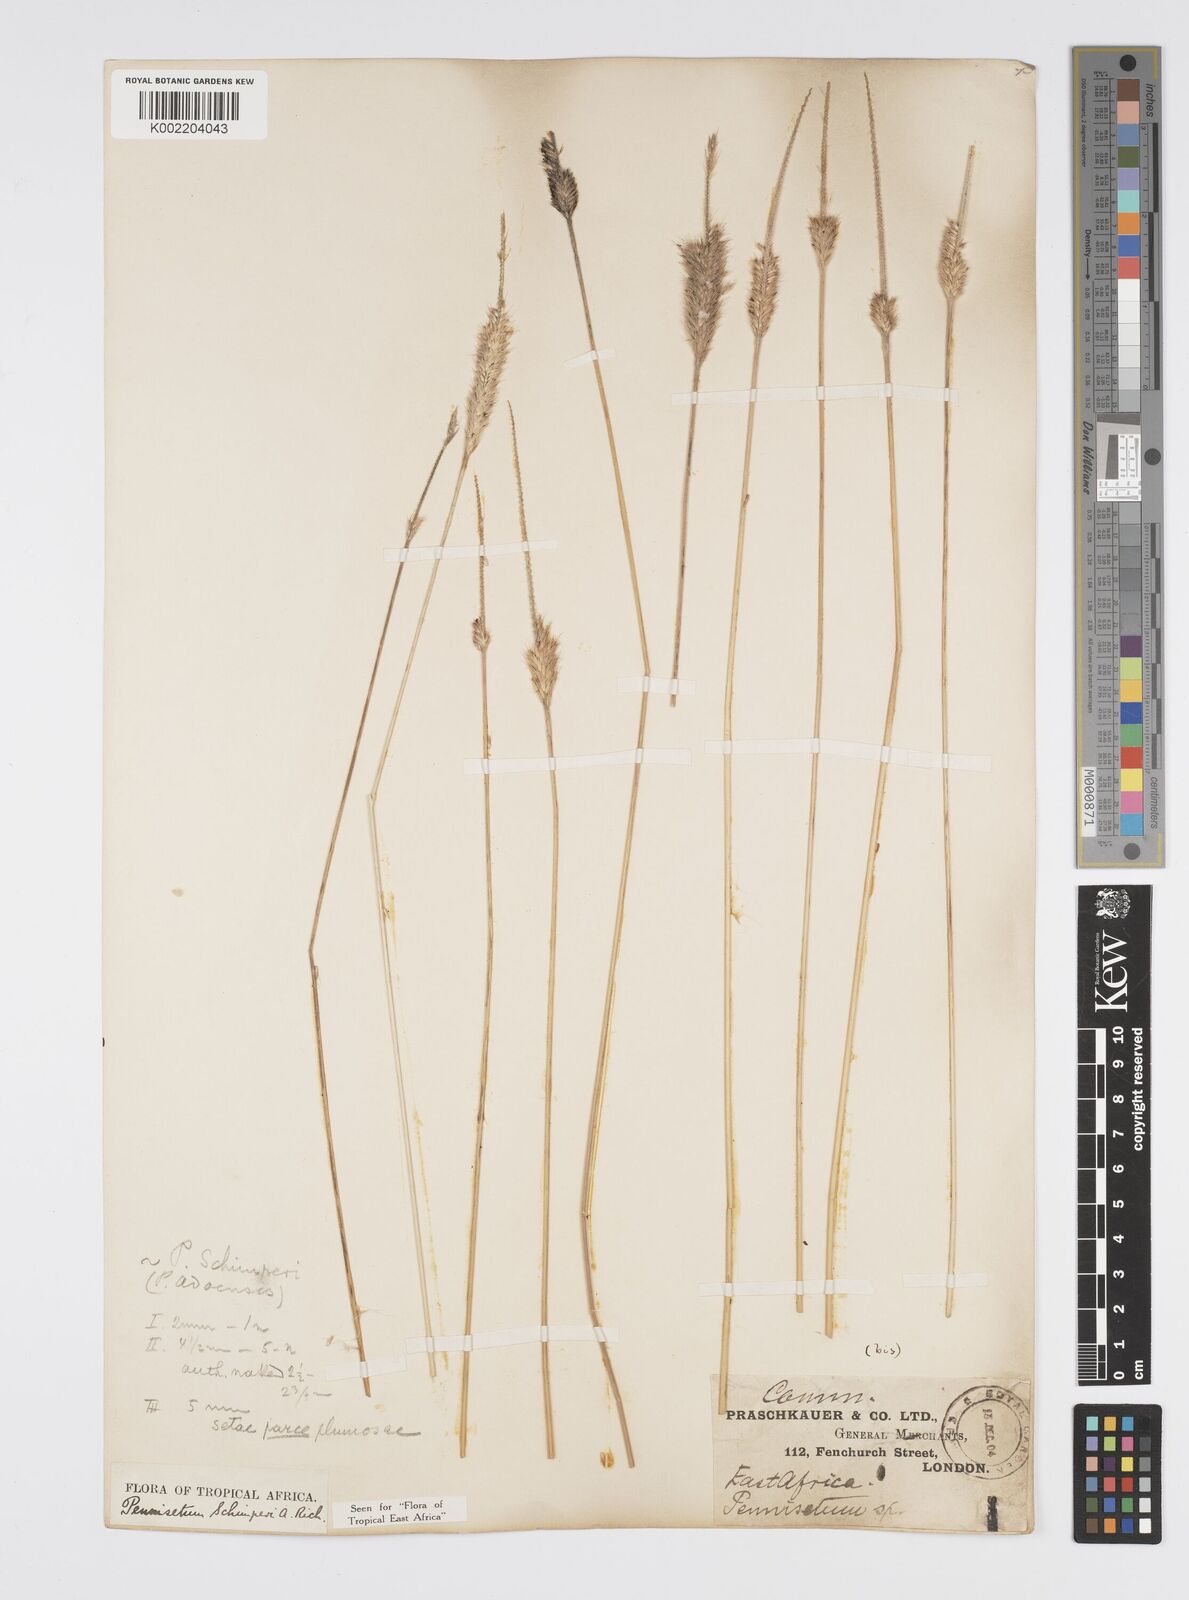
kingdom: Plantae
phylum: Tracheophyta
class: Liliopsida
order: Poales
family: Poaceae
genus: Cenchrus
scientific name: Cenchrus sphacelatus
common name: Bulgras
